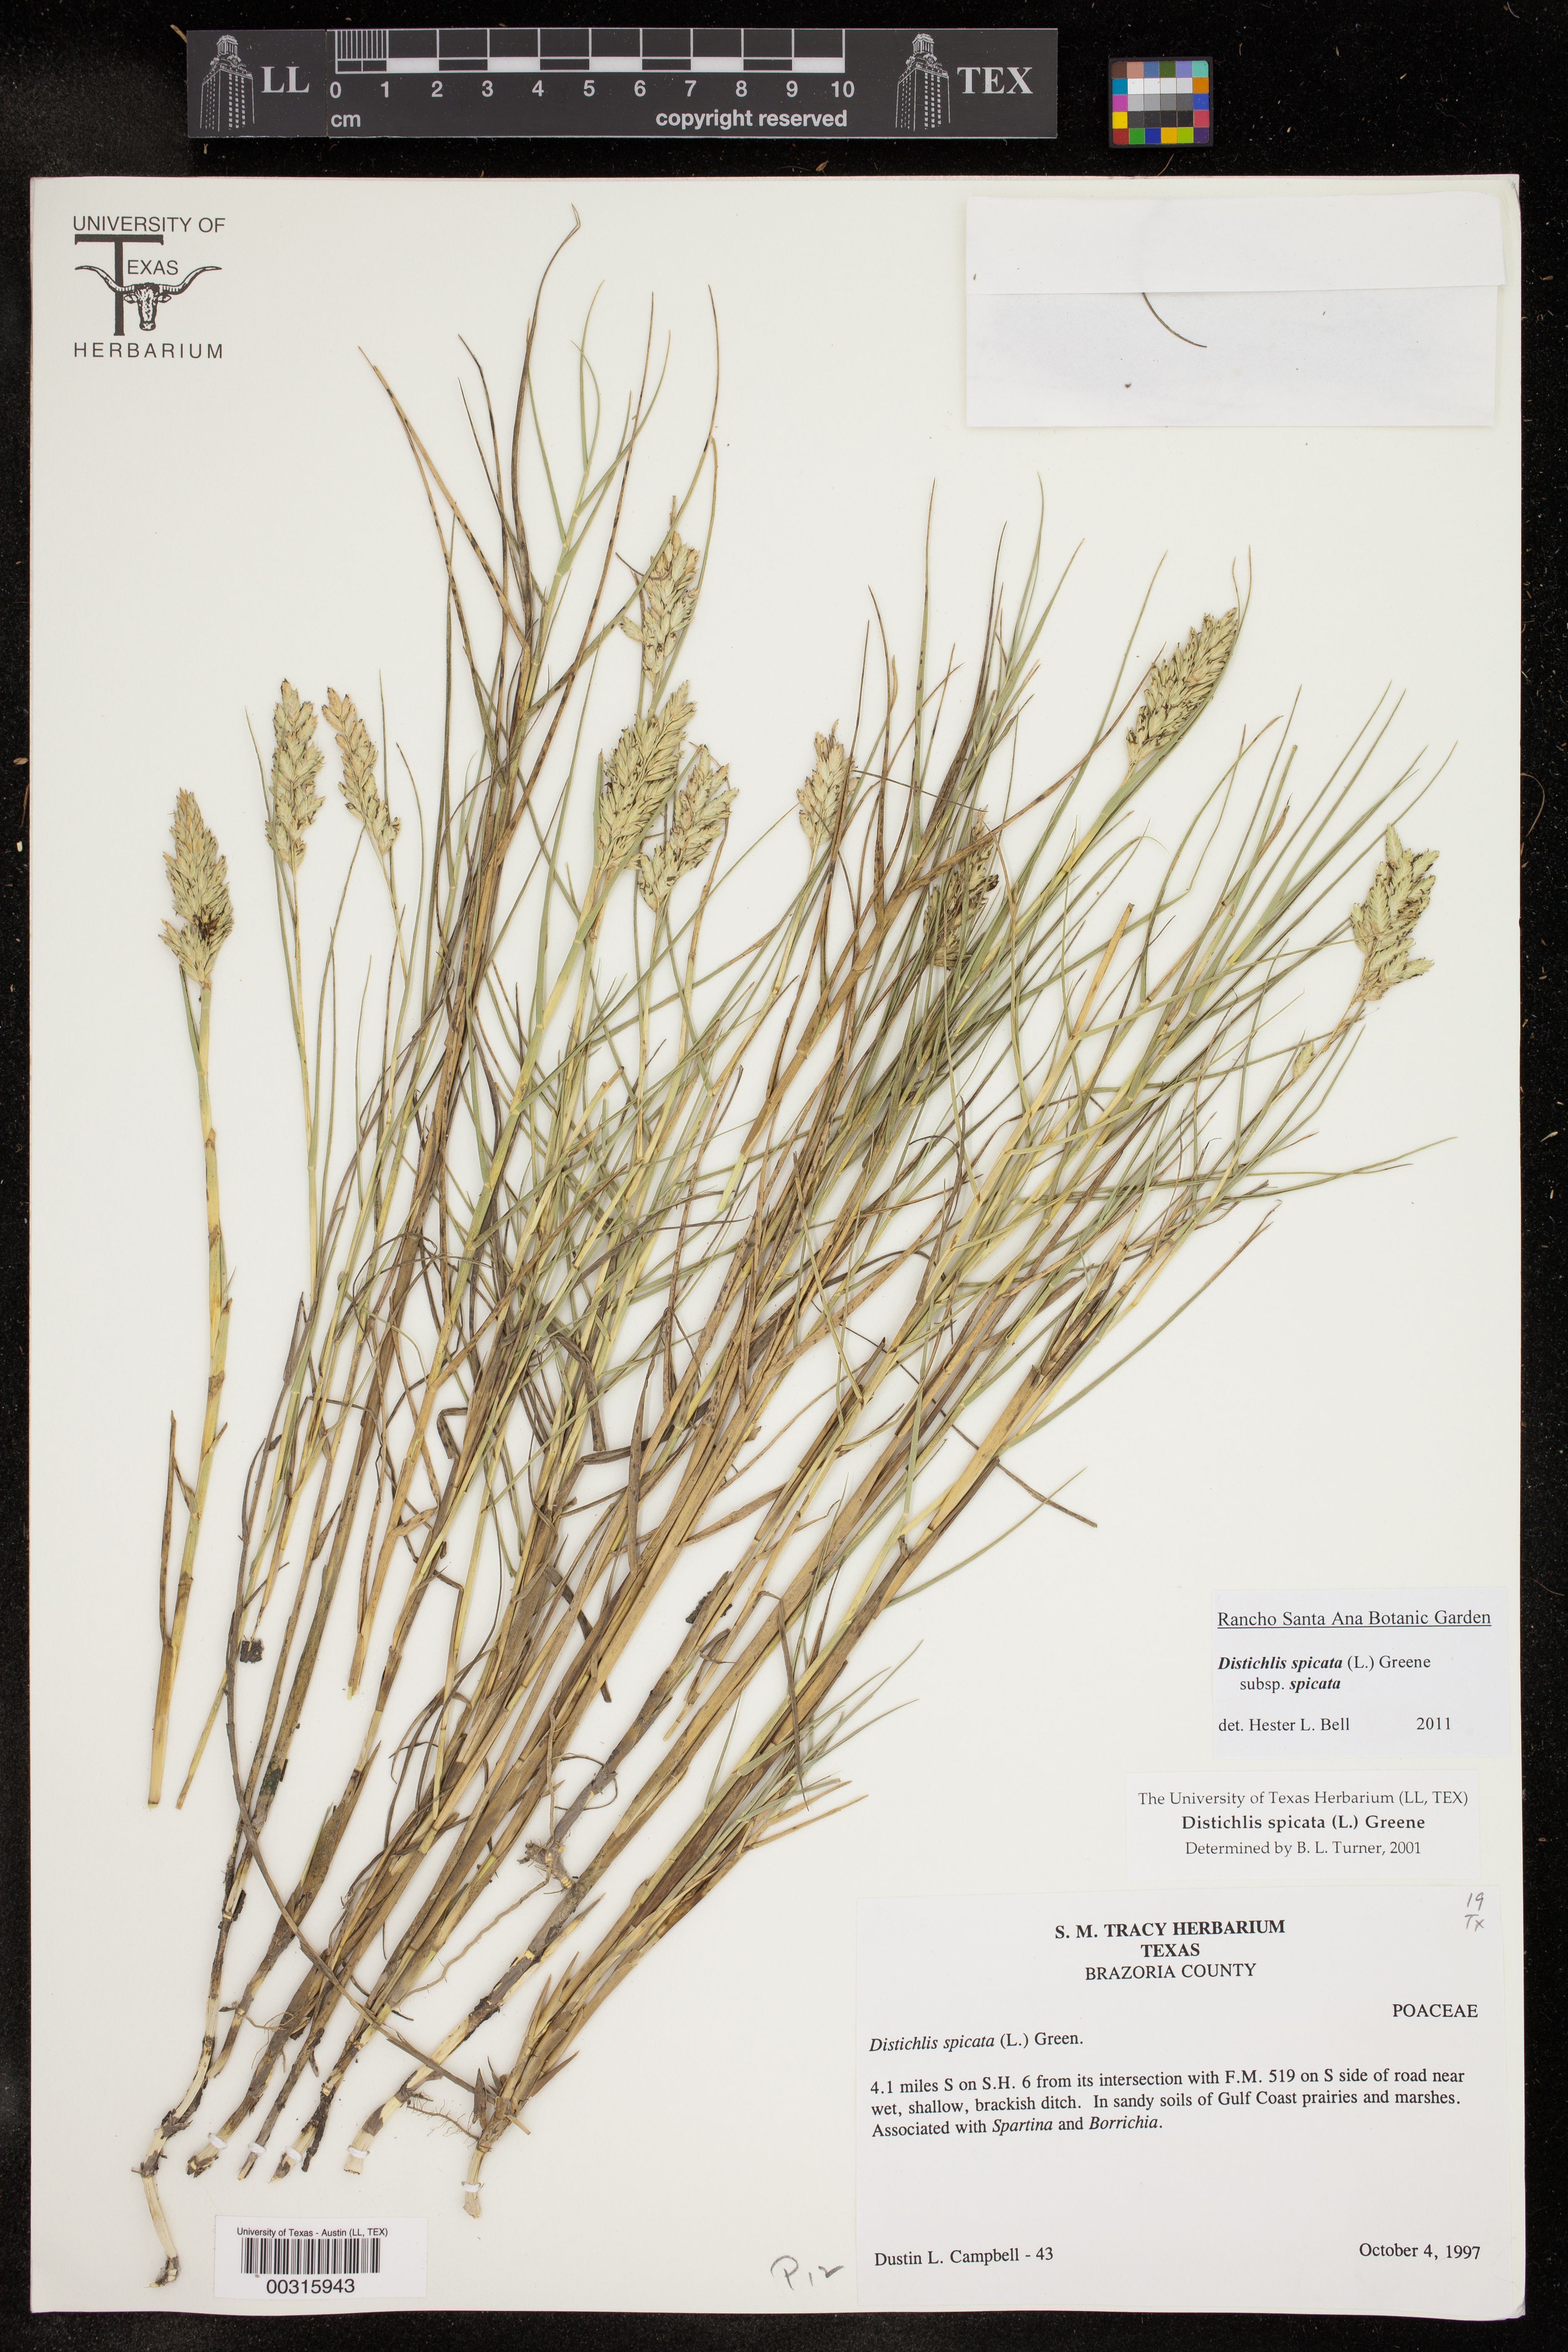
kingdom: Plantae
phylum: Tracheophyta
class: Liliopsida
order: Poales
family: Poaceae
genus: Distichlis
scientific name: Distichlis spicata
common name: Saltgrass
